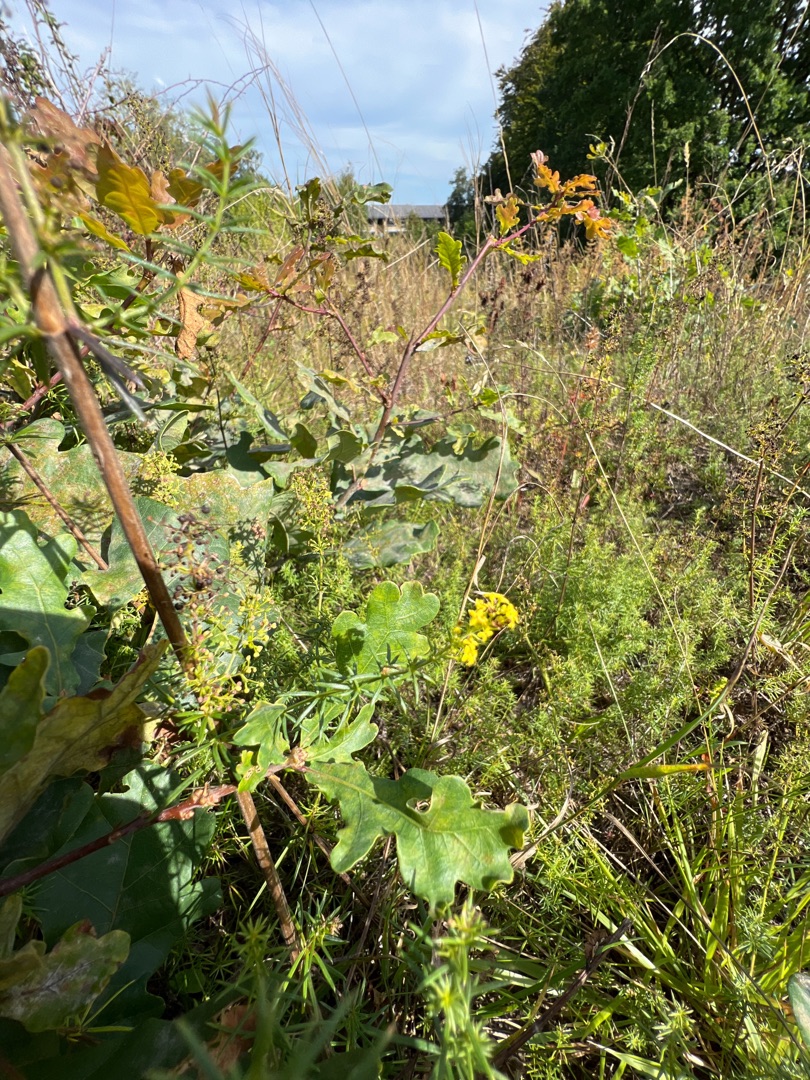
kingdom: Plantae
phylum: Tracheophyta
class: Magnoliopsida
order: Gentianales
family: Rubiaceae
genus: Galium
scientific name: Galium verum
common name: Gul snerre
